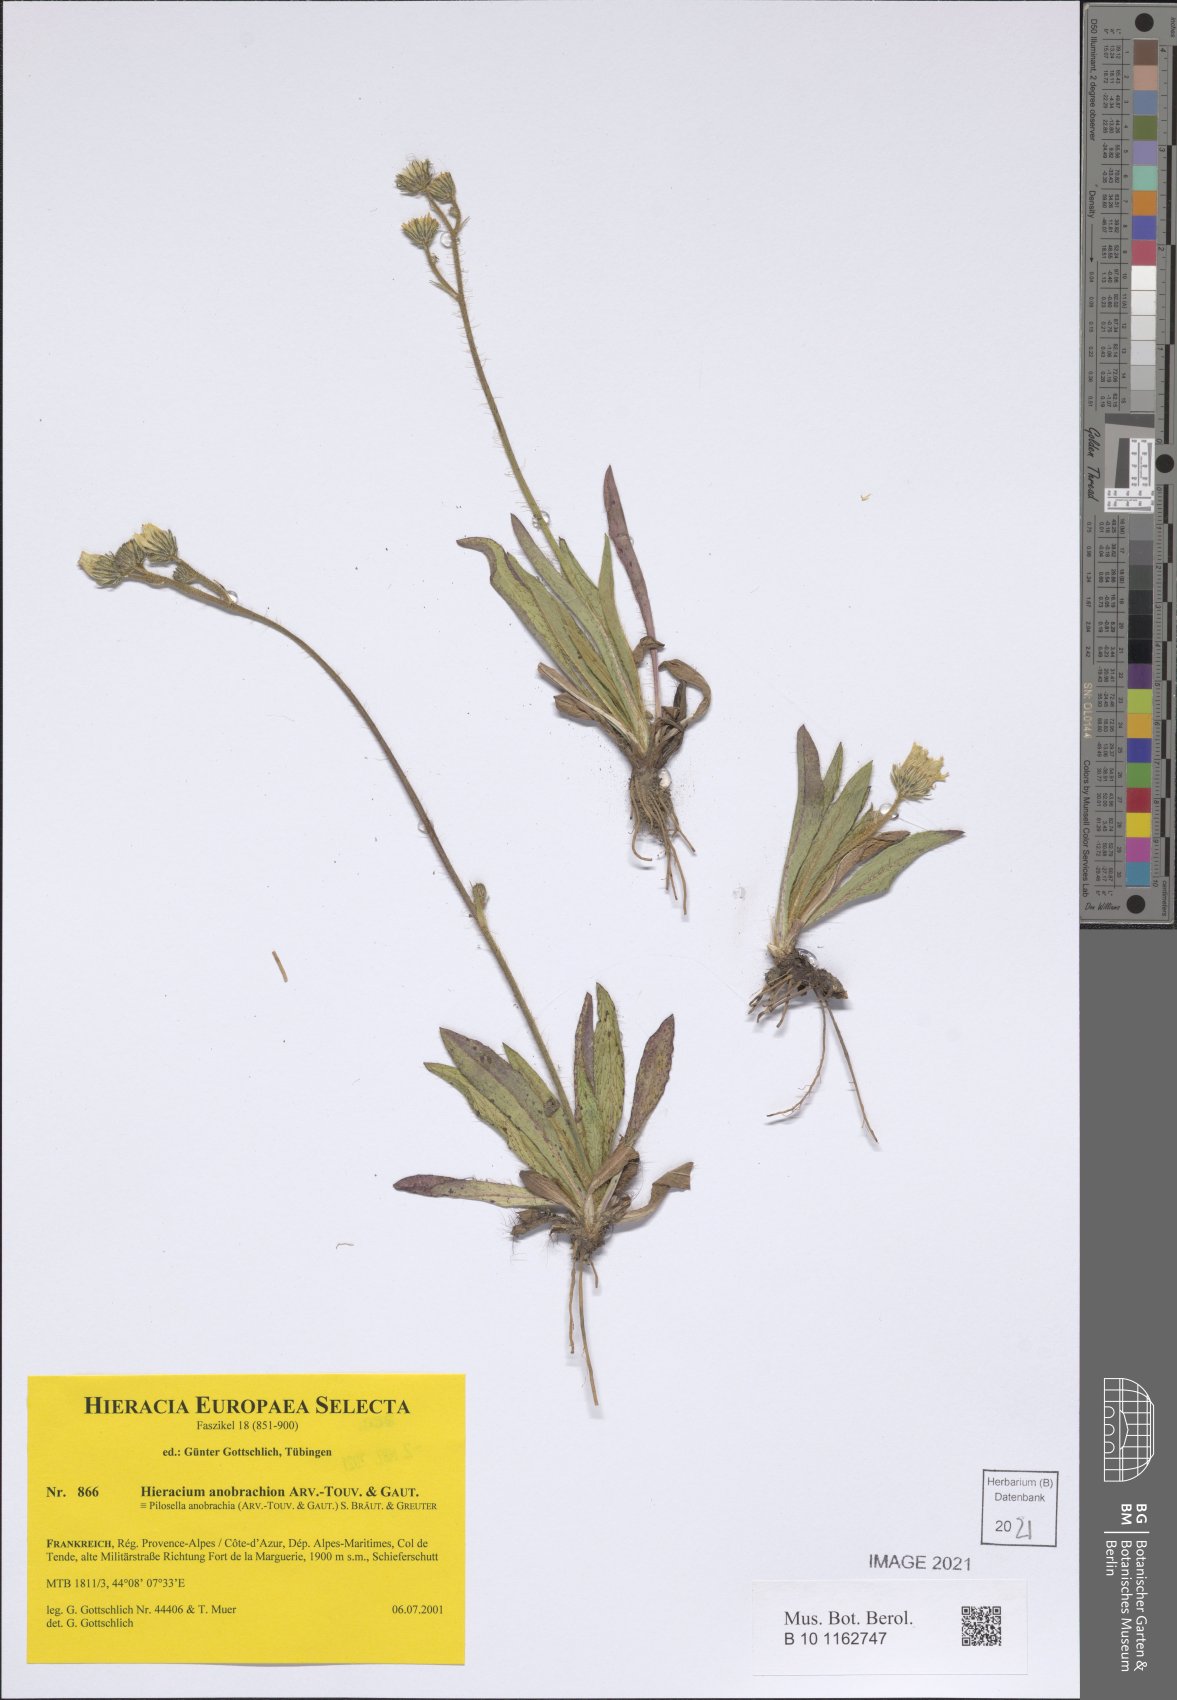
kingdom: Plantae
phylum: Tracheophyta
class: Magnoliopsida
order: Asterales
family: Asteraceae
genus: Pilosella
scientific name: Pilosella anobrachia
